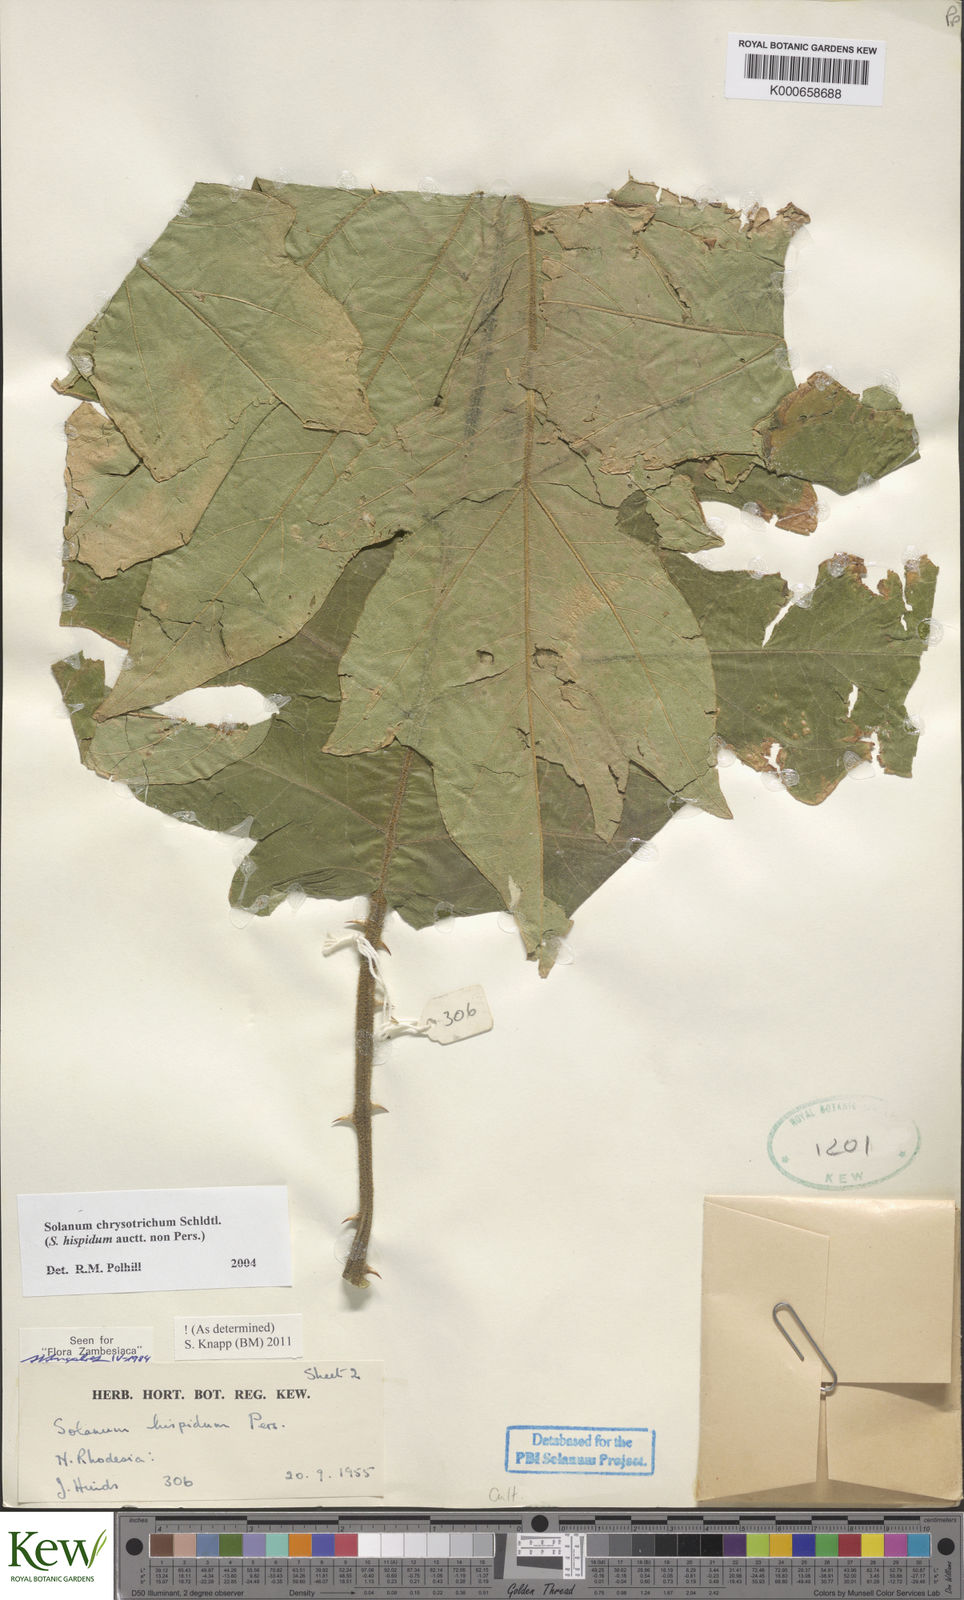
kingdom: Plantae
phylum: Tracheophyta
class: Magnoliopsida
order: Solanales
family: Solanaceae
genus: Solanum
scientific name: Solanum chrysotrichum
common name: Nightshade
